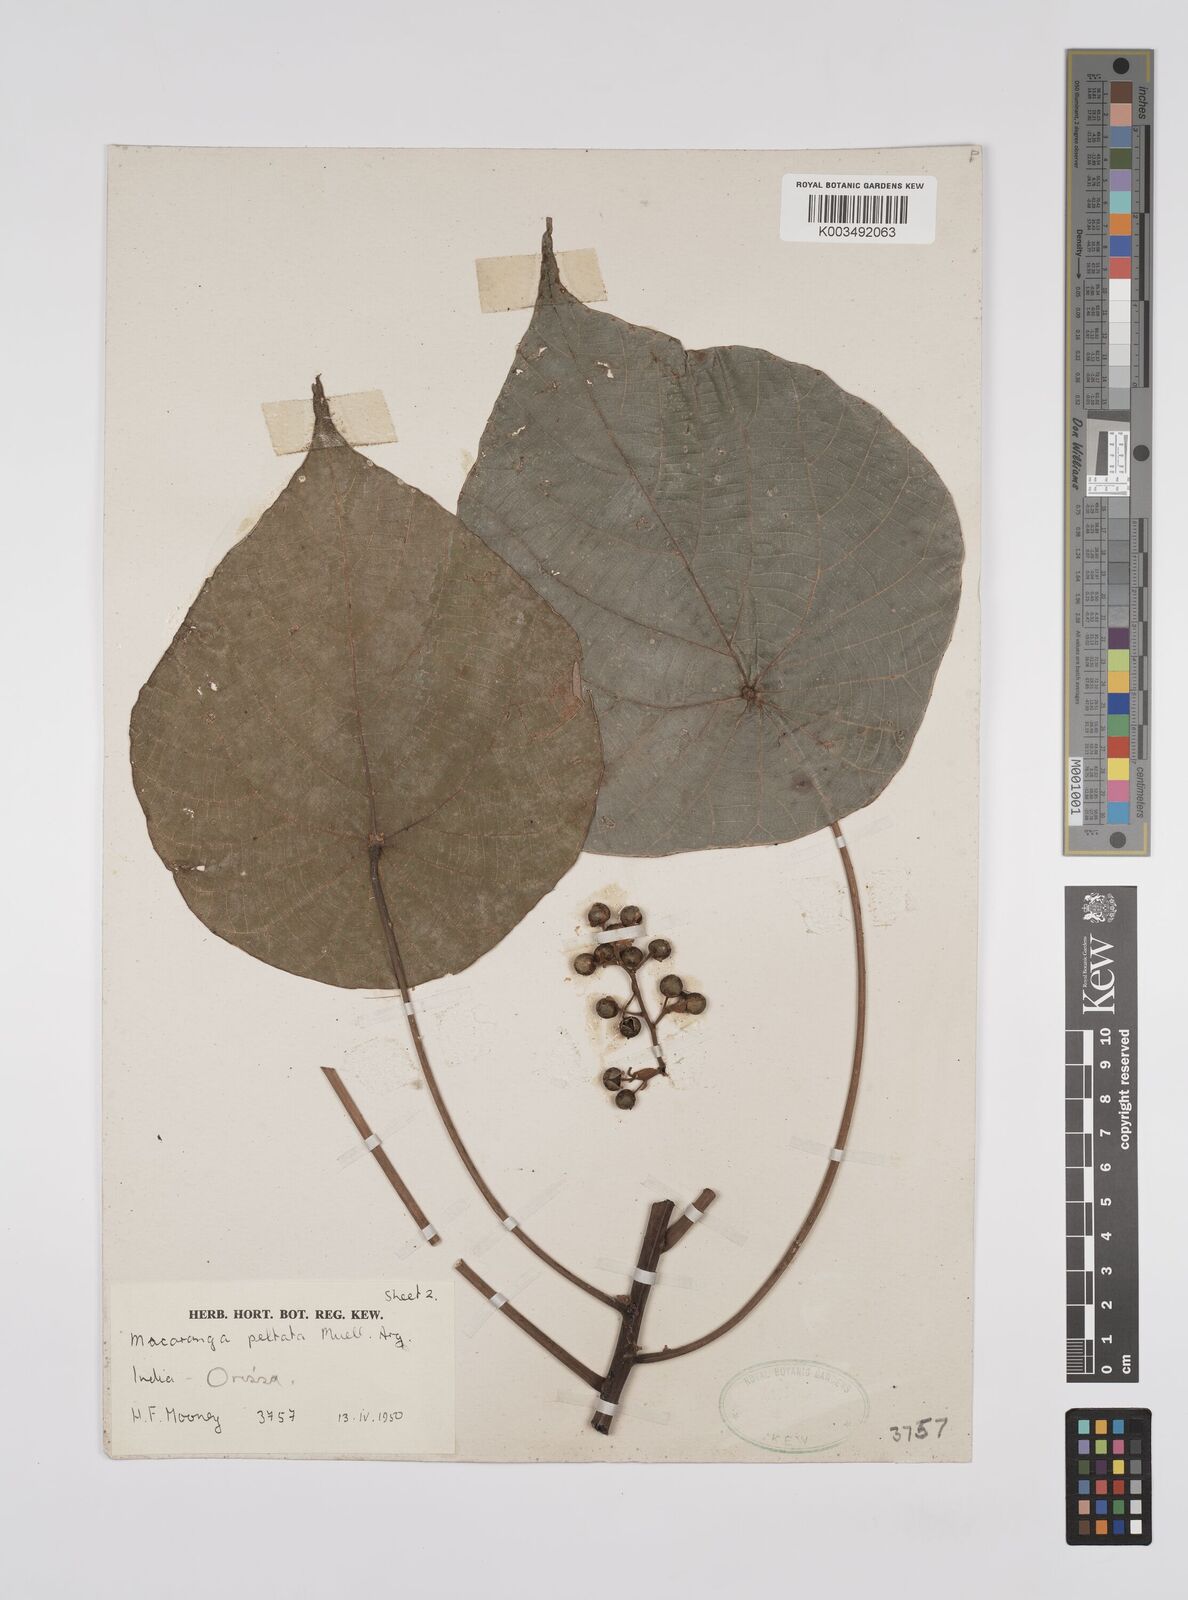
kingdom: Plantae
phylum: Tracheophyta
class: Magnoliopsida
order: Malpighiales
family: Euphorbiaceae
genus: Macaranga
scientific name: Macaranga peltata
